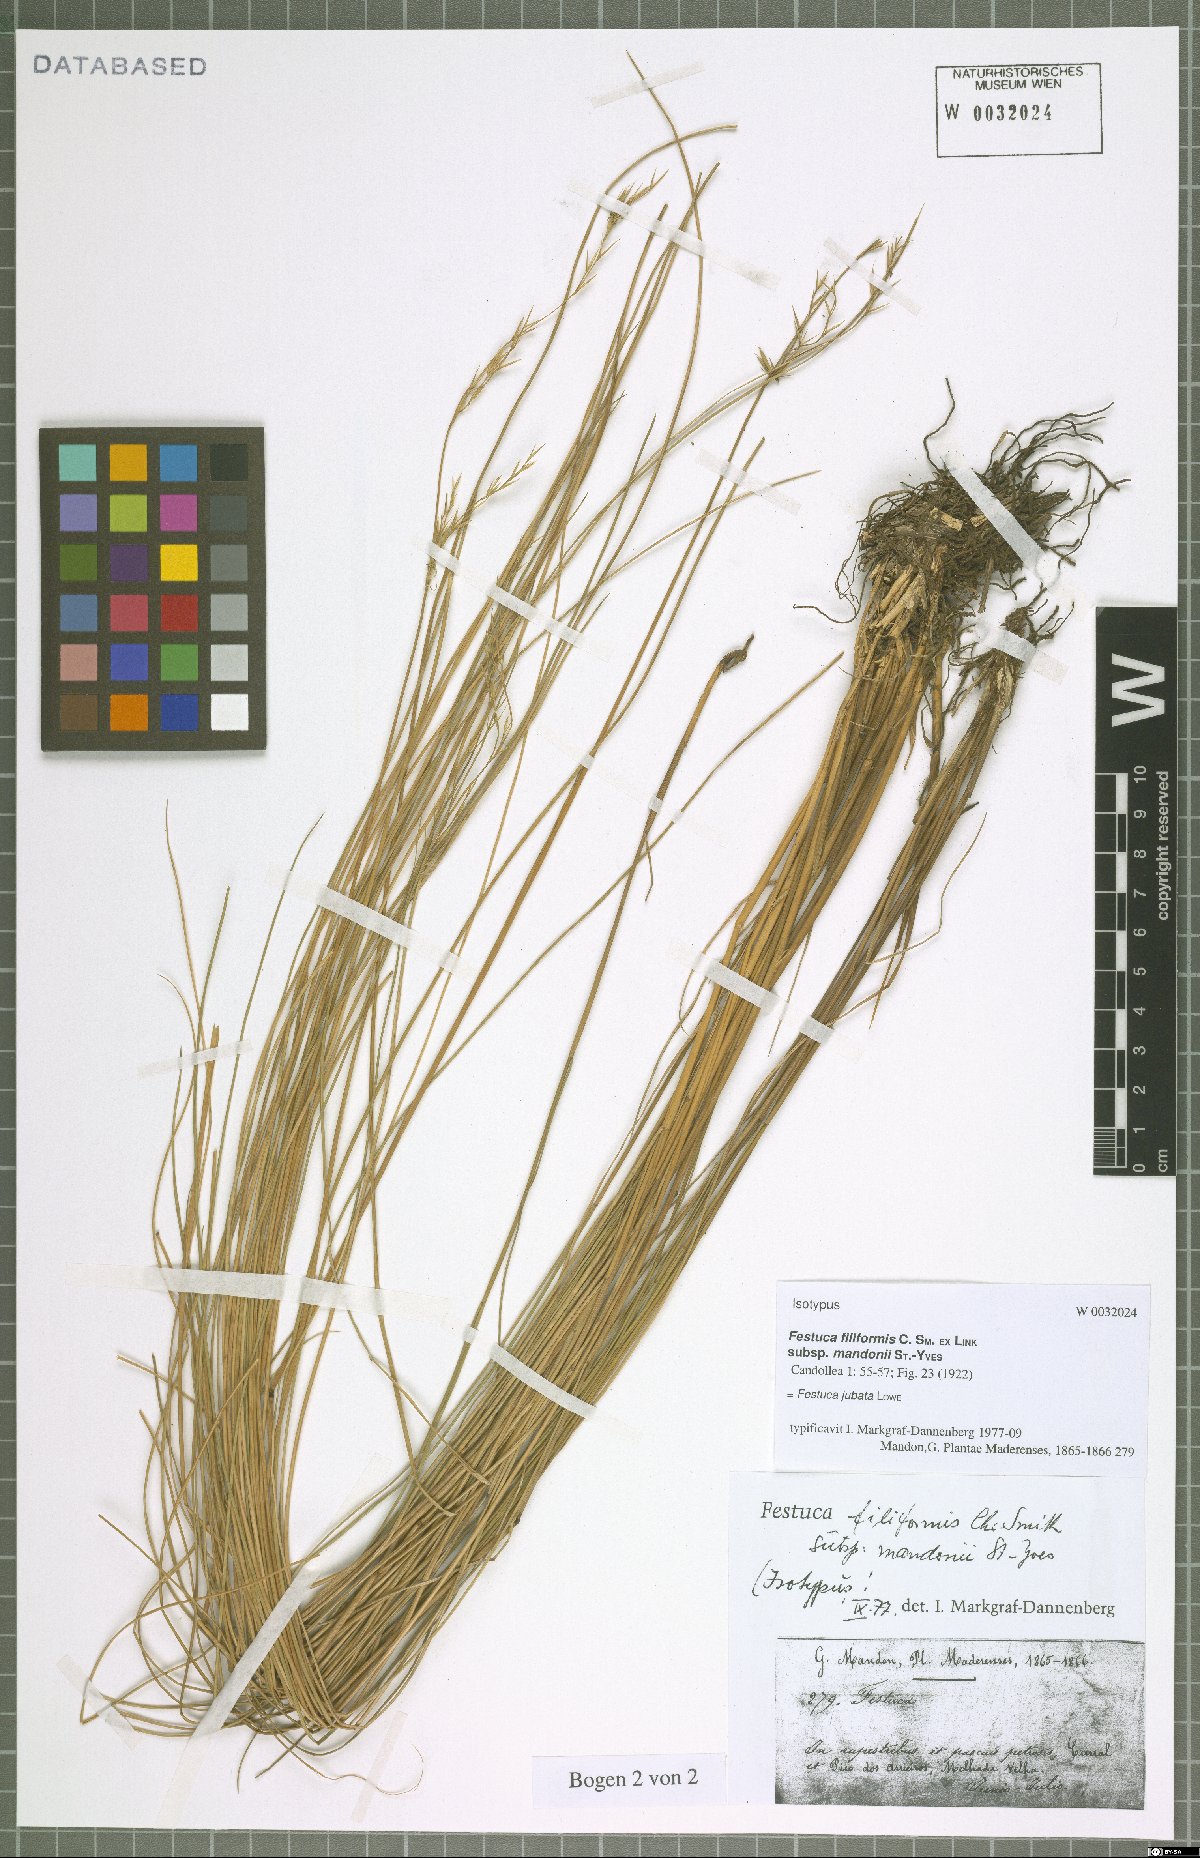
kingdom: Plantae
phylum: Tracheophyta
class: Liliopsida
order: Poales
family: Poaceae
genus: Festuca
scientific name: Festuca jubata
